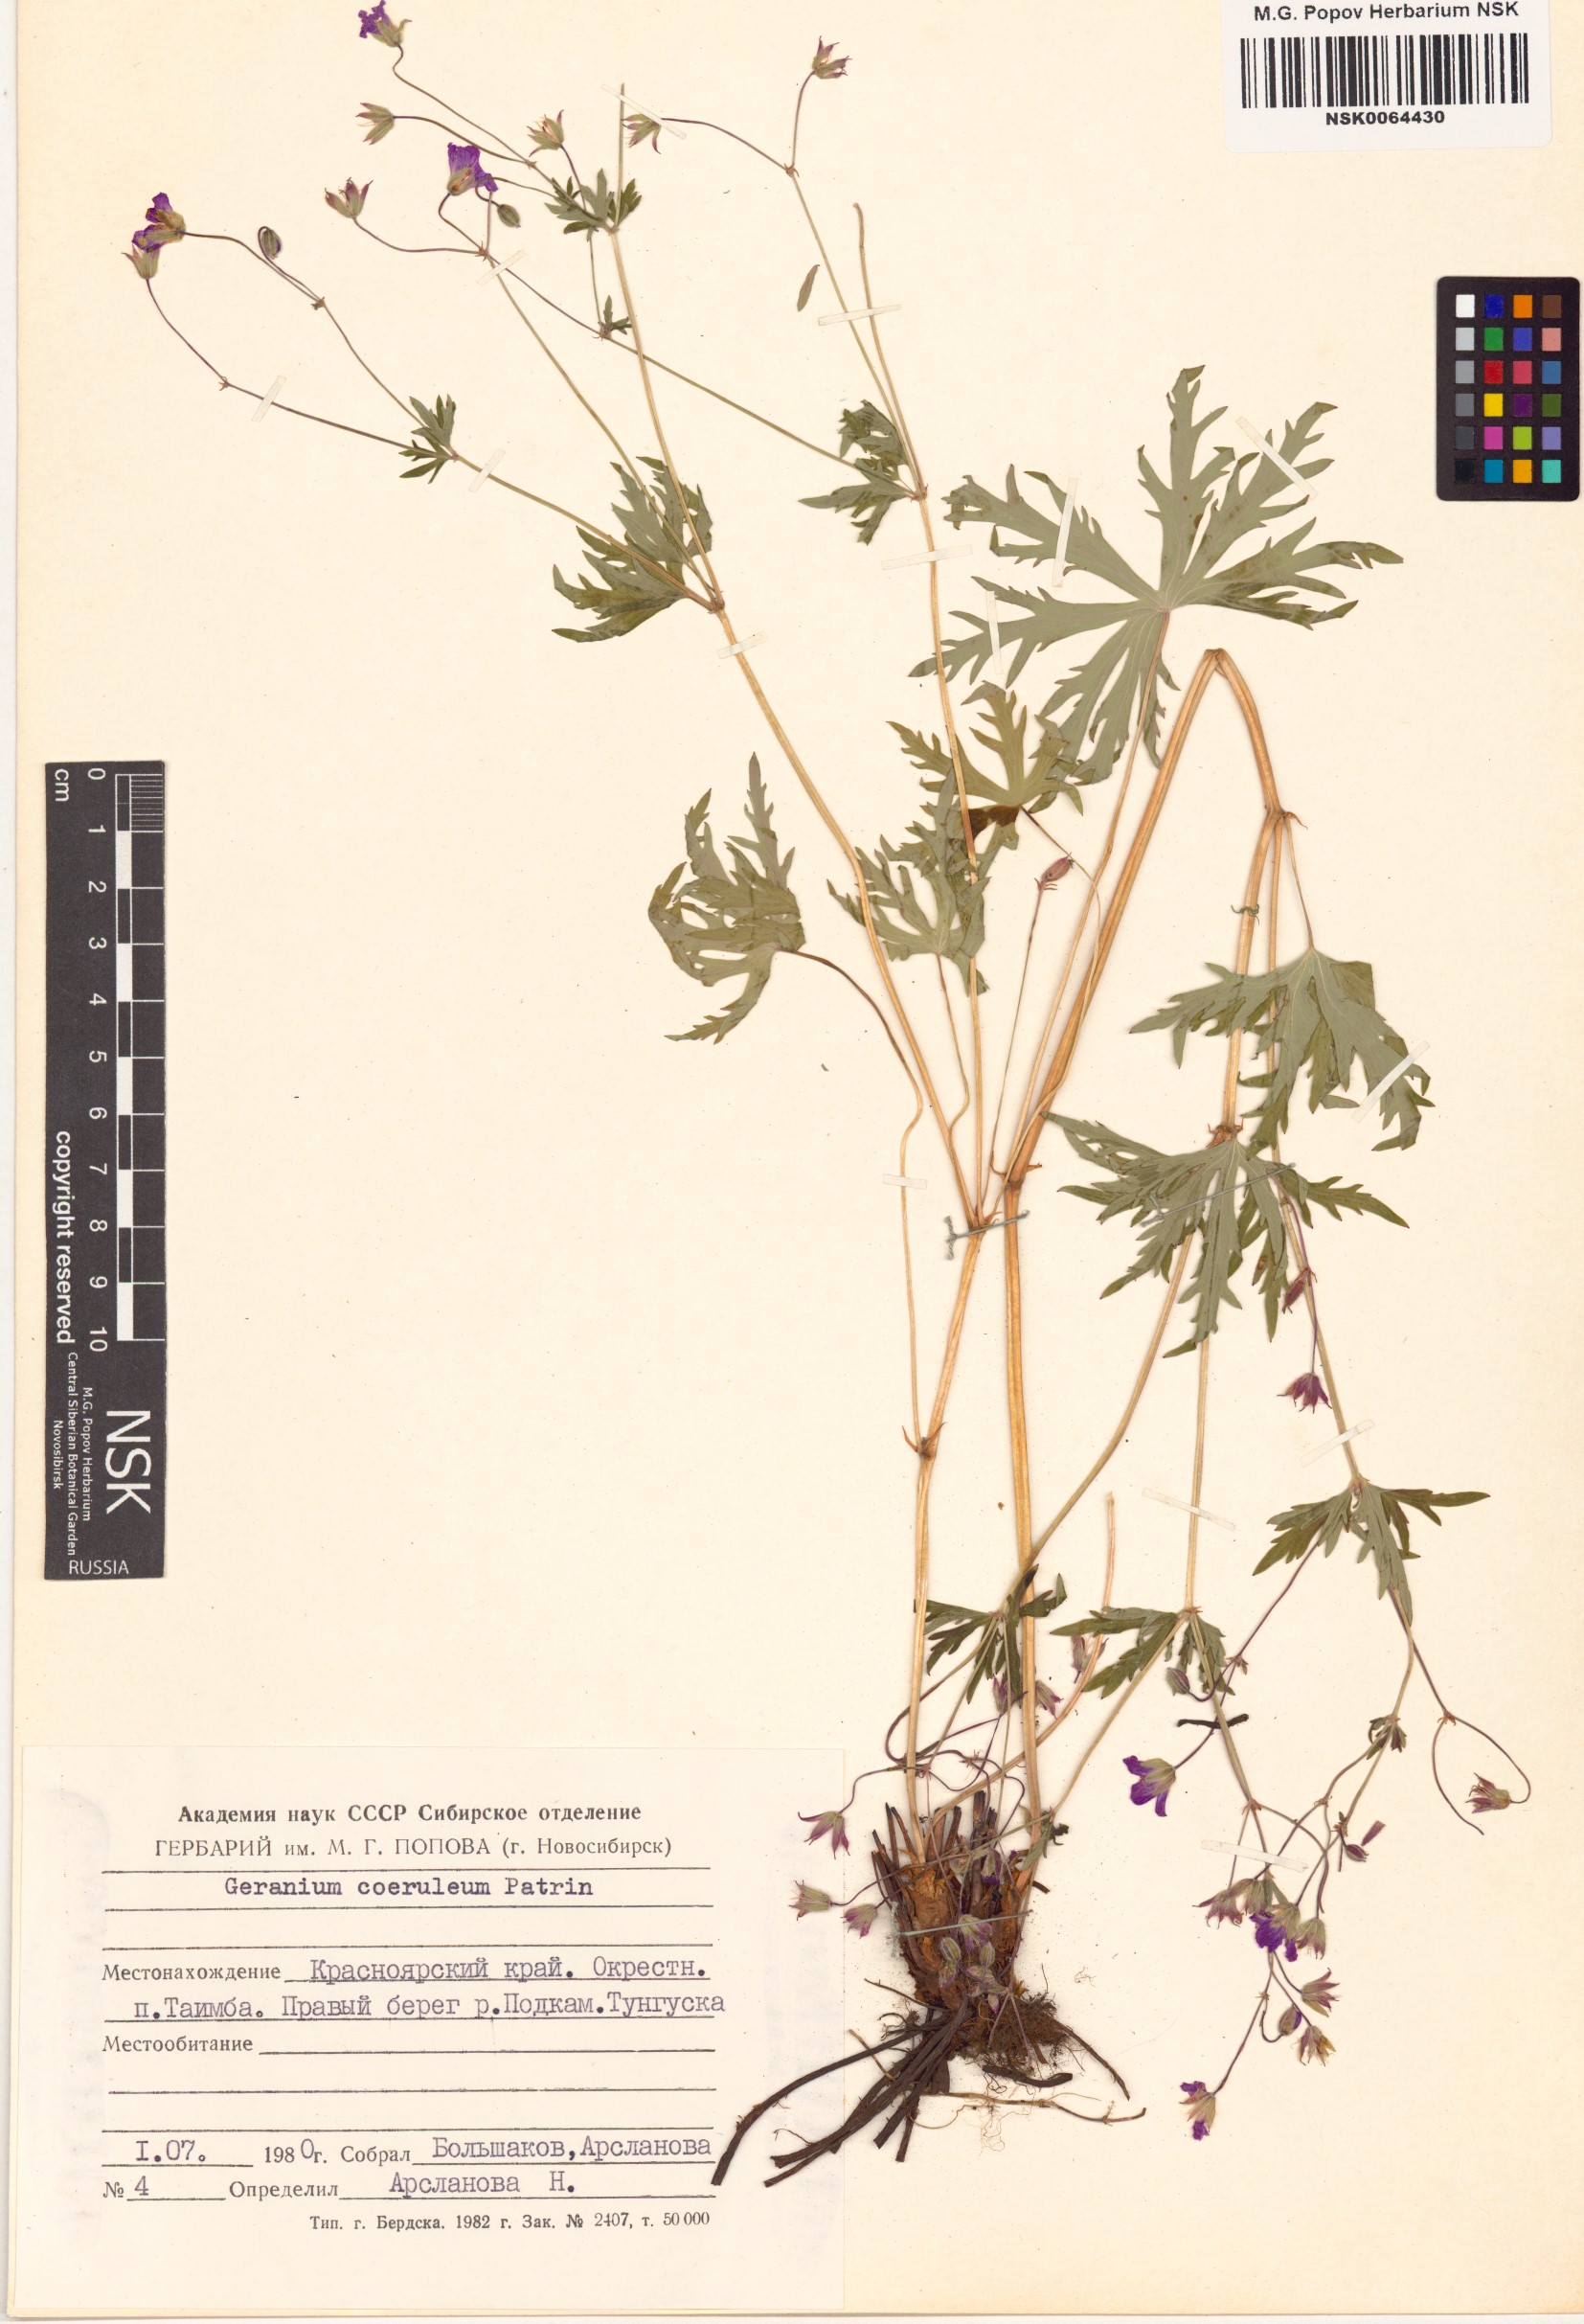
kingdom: Plantae
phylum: Tracheophyta
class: Magnoliopsida
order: Geraniales
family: Geraniaceae
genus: Geranium
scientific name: Geranium pseudosibiricum
